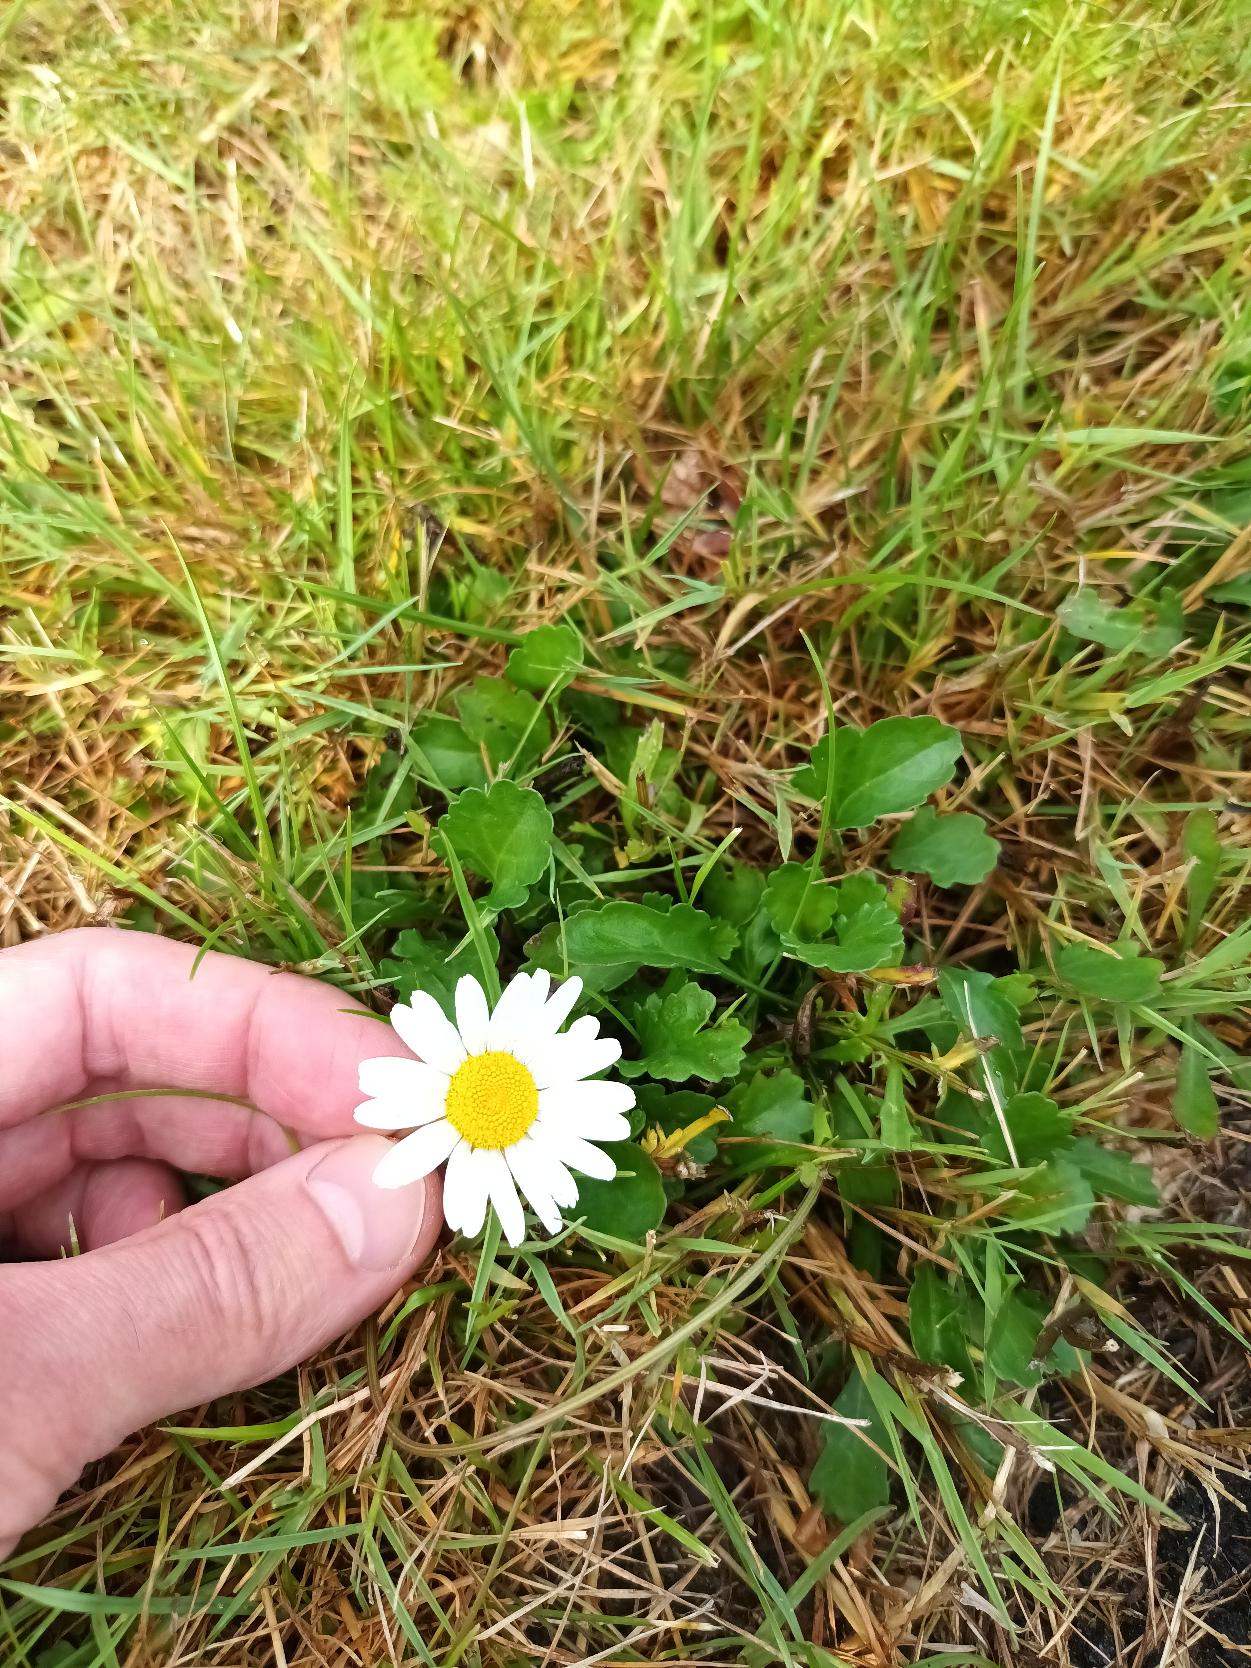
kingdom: Plantae
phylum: Tracheophyta
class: Magnoliopsida
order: Asterales
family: Asteraceae
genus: Leucanthemum
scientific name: Leucanthemum vulgare
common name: Hvid okseøje
